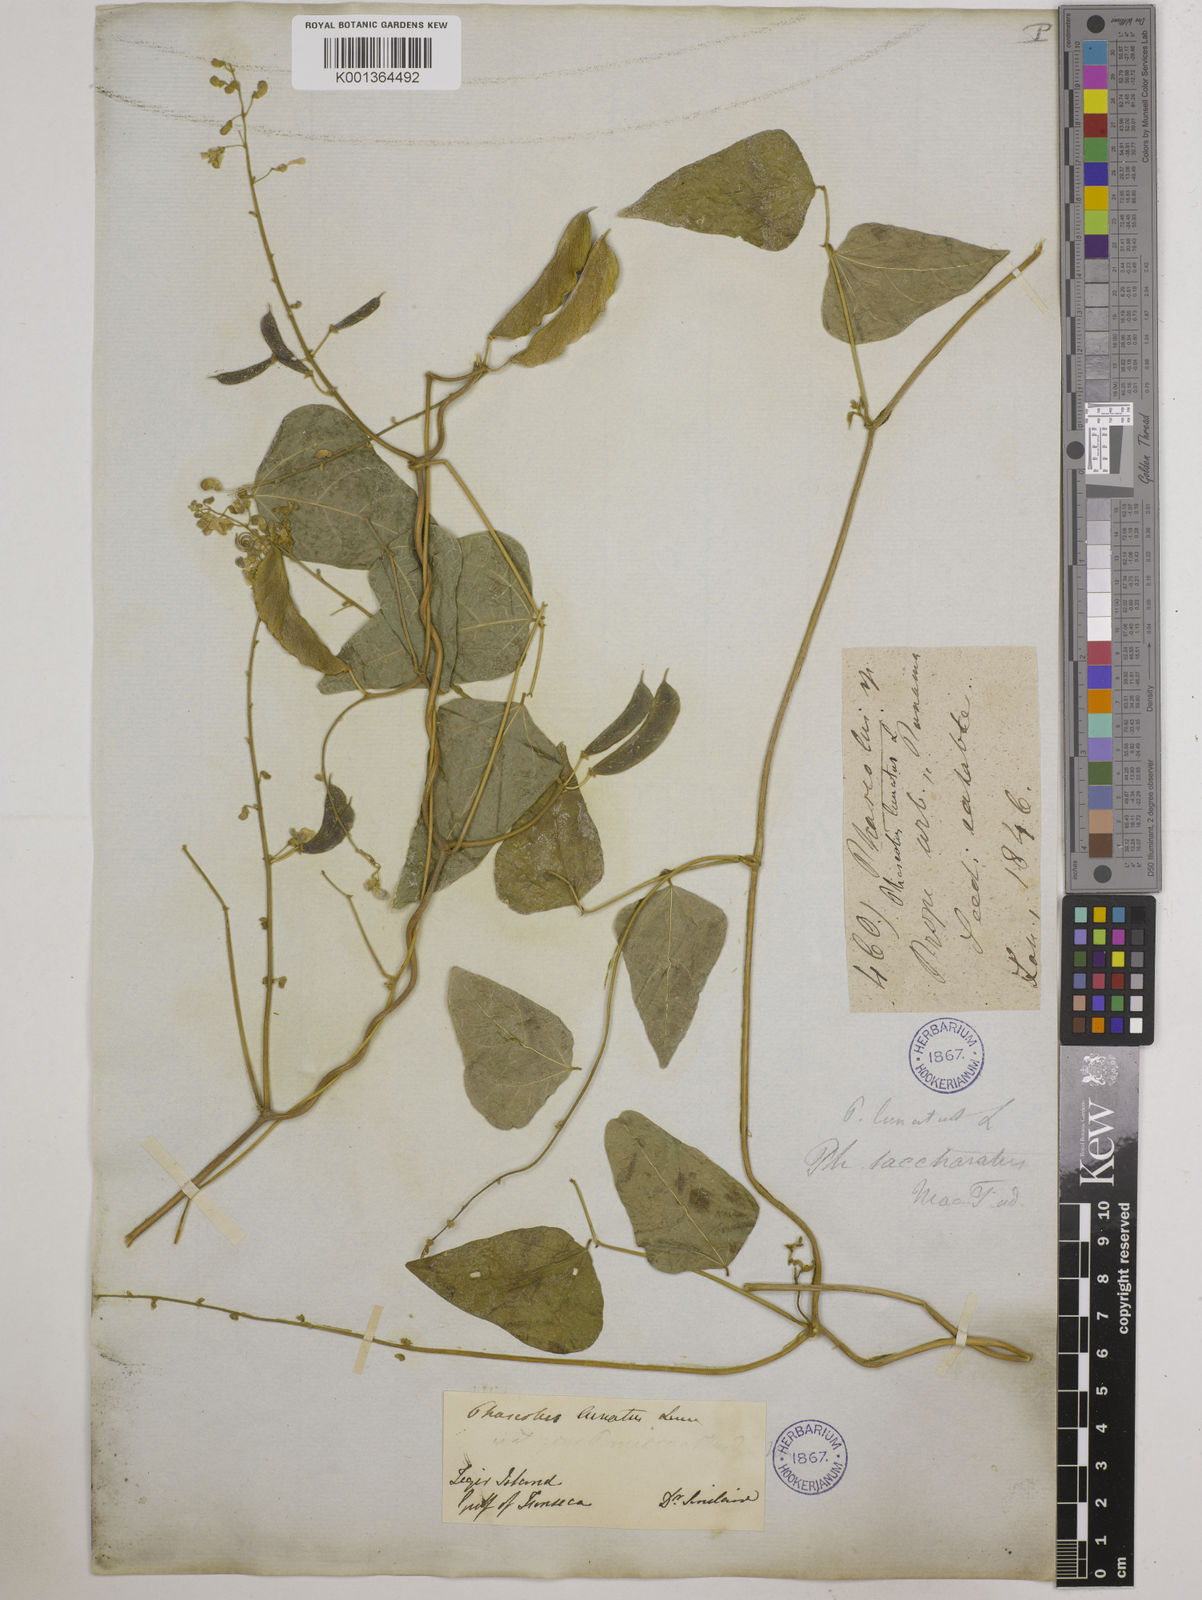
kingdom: Plantae
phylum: Tracheophyta
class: Magnoliopsida
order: Fabales
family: Fabaceae
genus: Phaseolus
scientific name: Phaseolus lunatus
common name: Sieva bean
